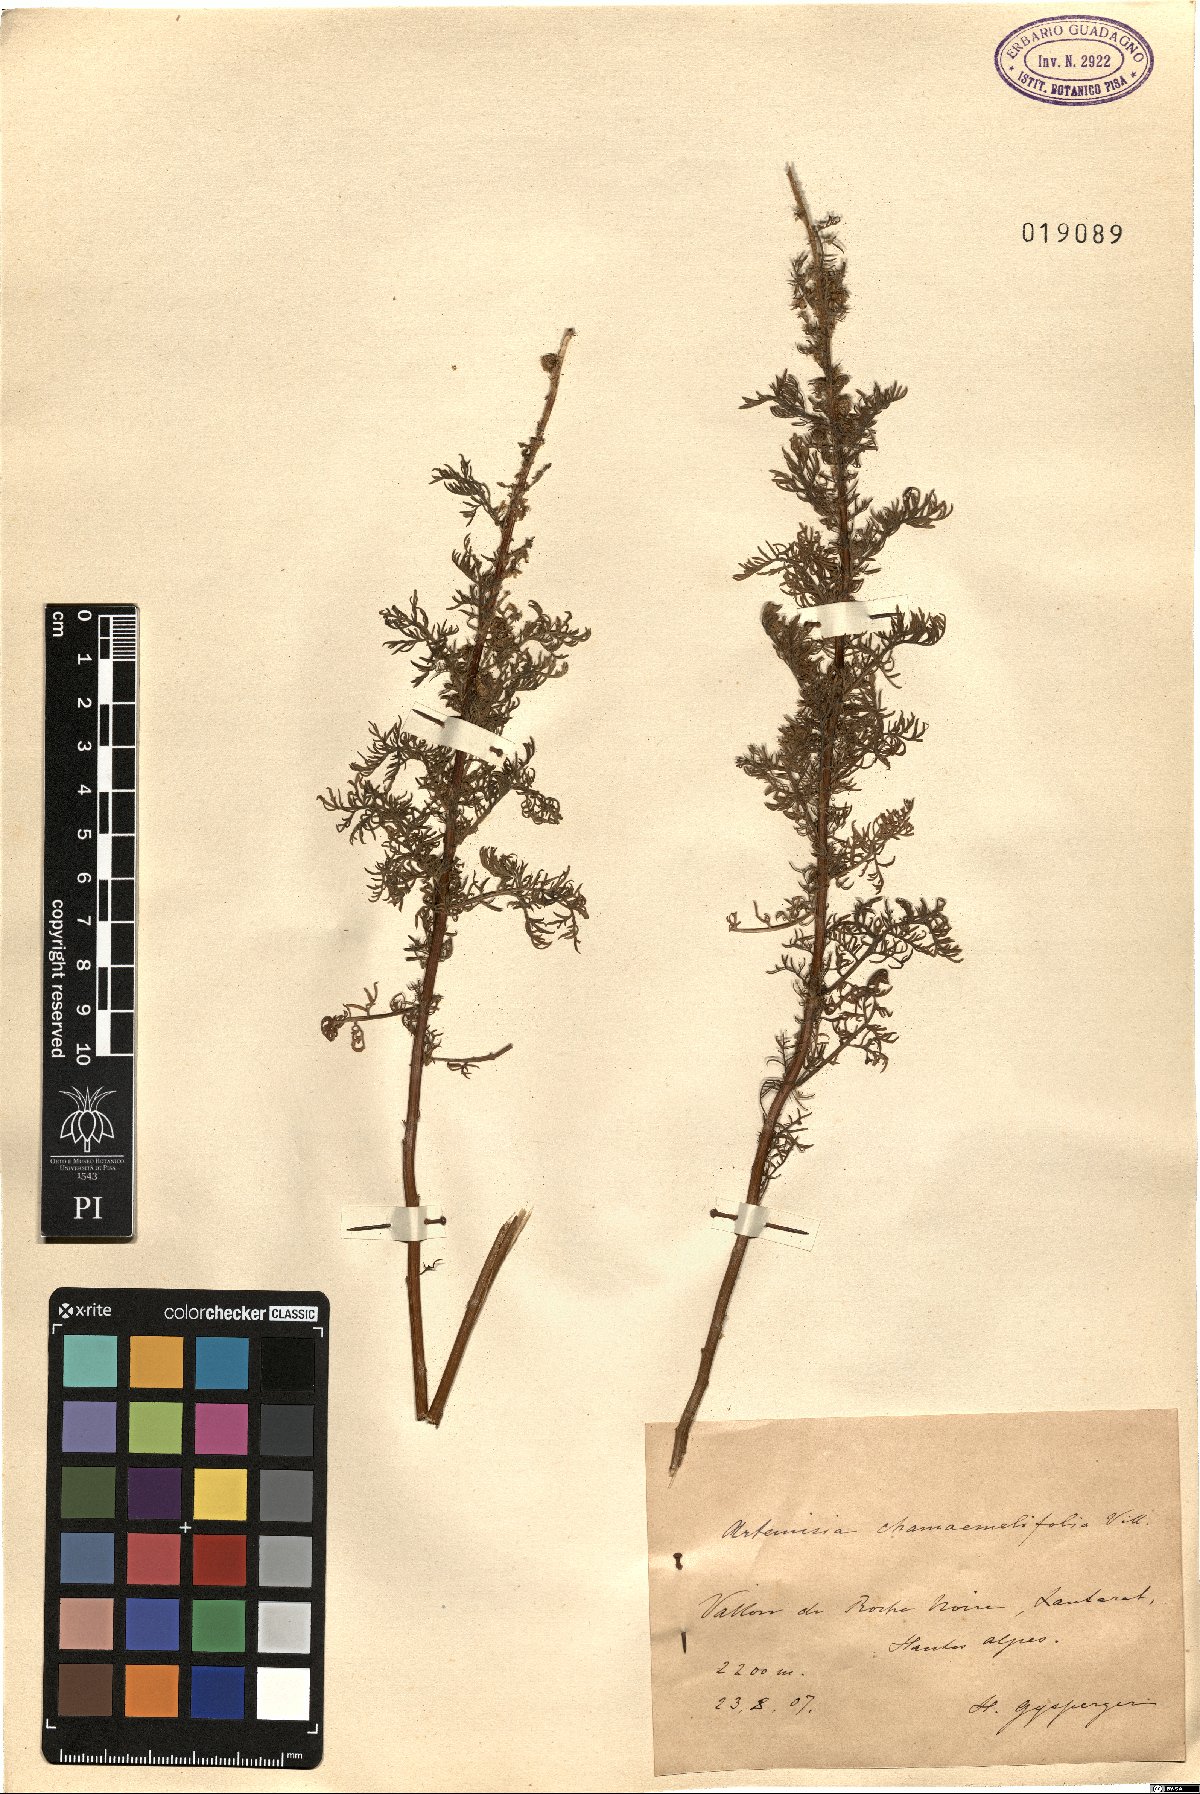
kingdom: Plantae
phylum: Tracheophyta
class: Magnoliopsida
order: Asterales
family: Asteraceae
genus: Artemisia
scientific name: Artemisia chamaemelifolia
